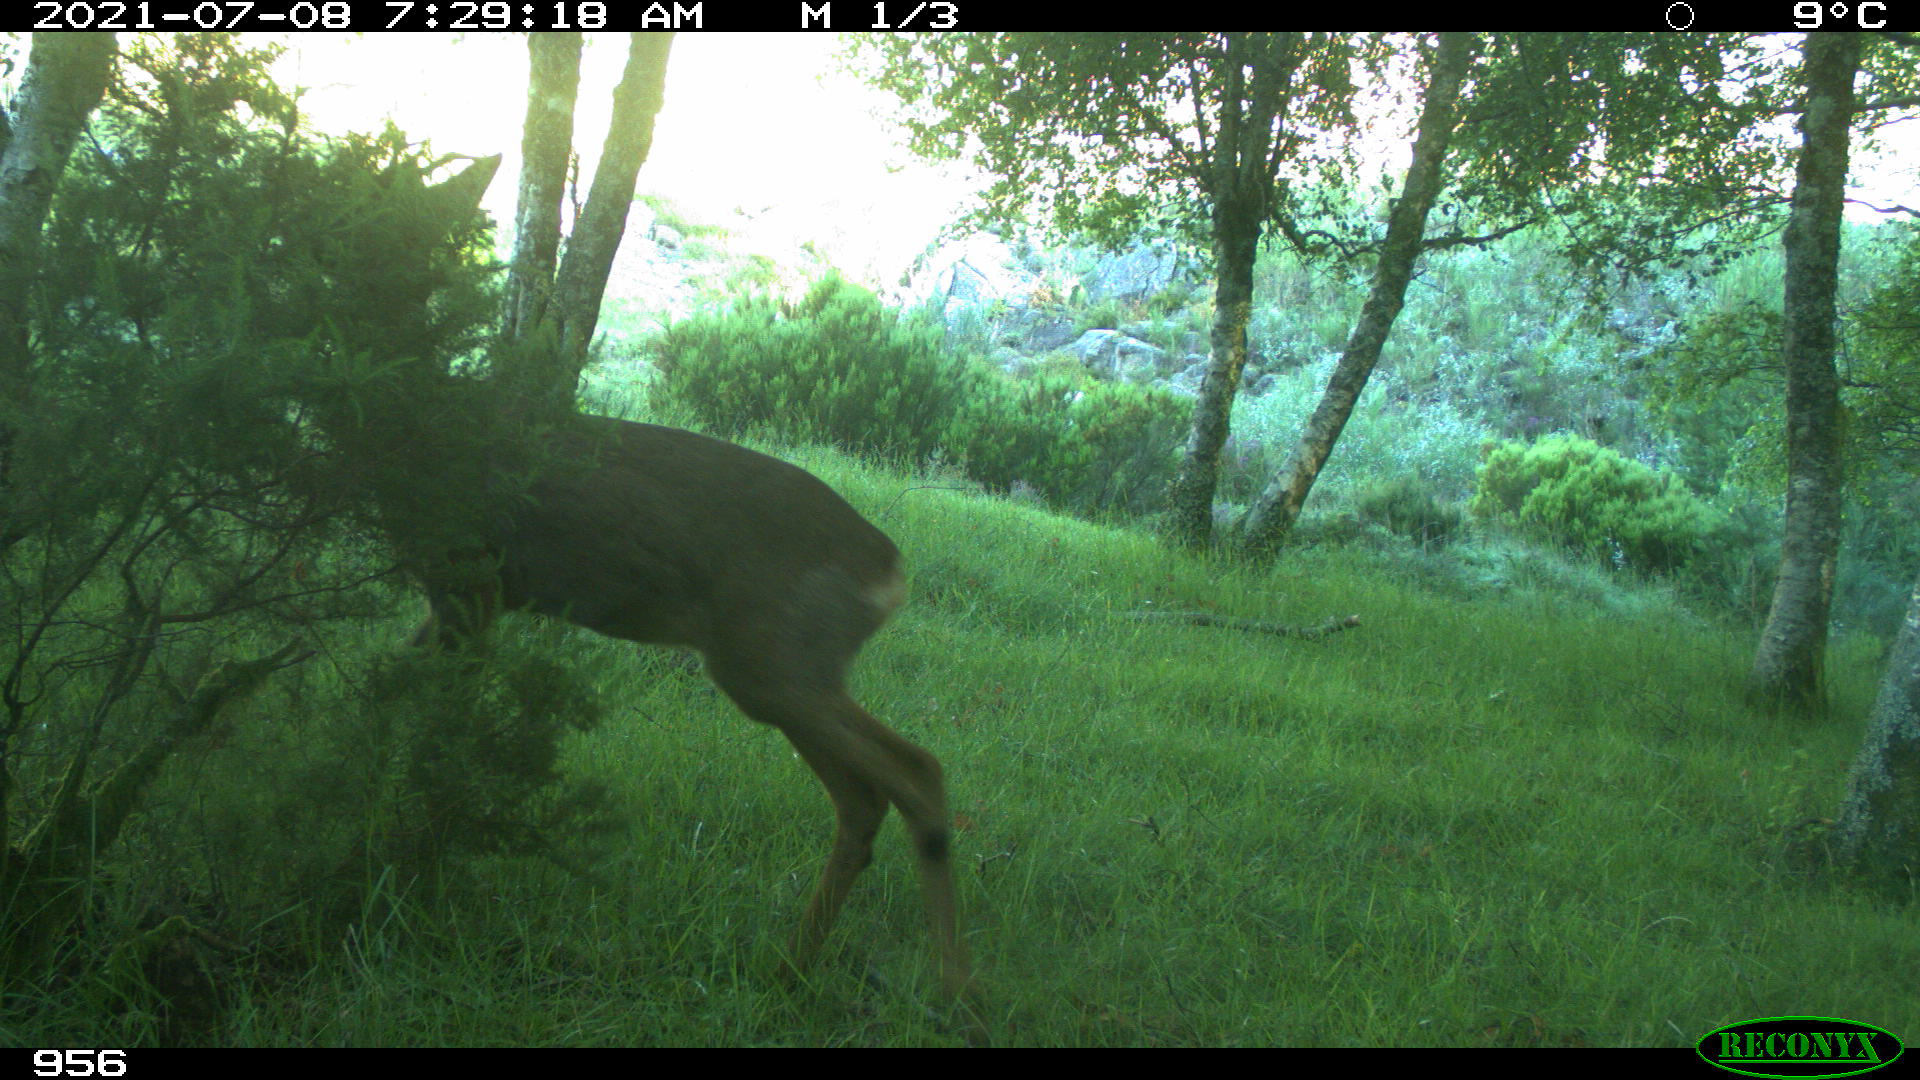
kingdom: Animalia
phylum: Chordata
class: Mammalia
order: Artiodactyla
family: Cervidae
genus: Capreolus
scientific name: Capreolus capreolus
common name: Western roe deer
